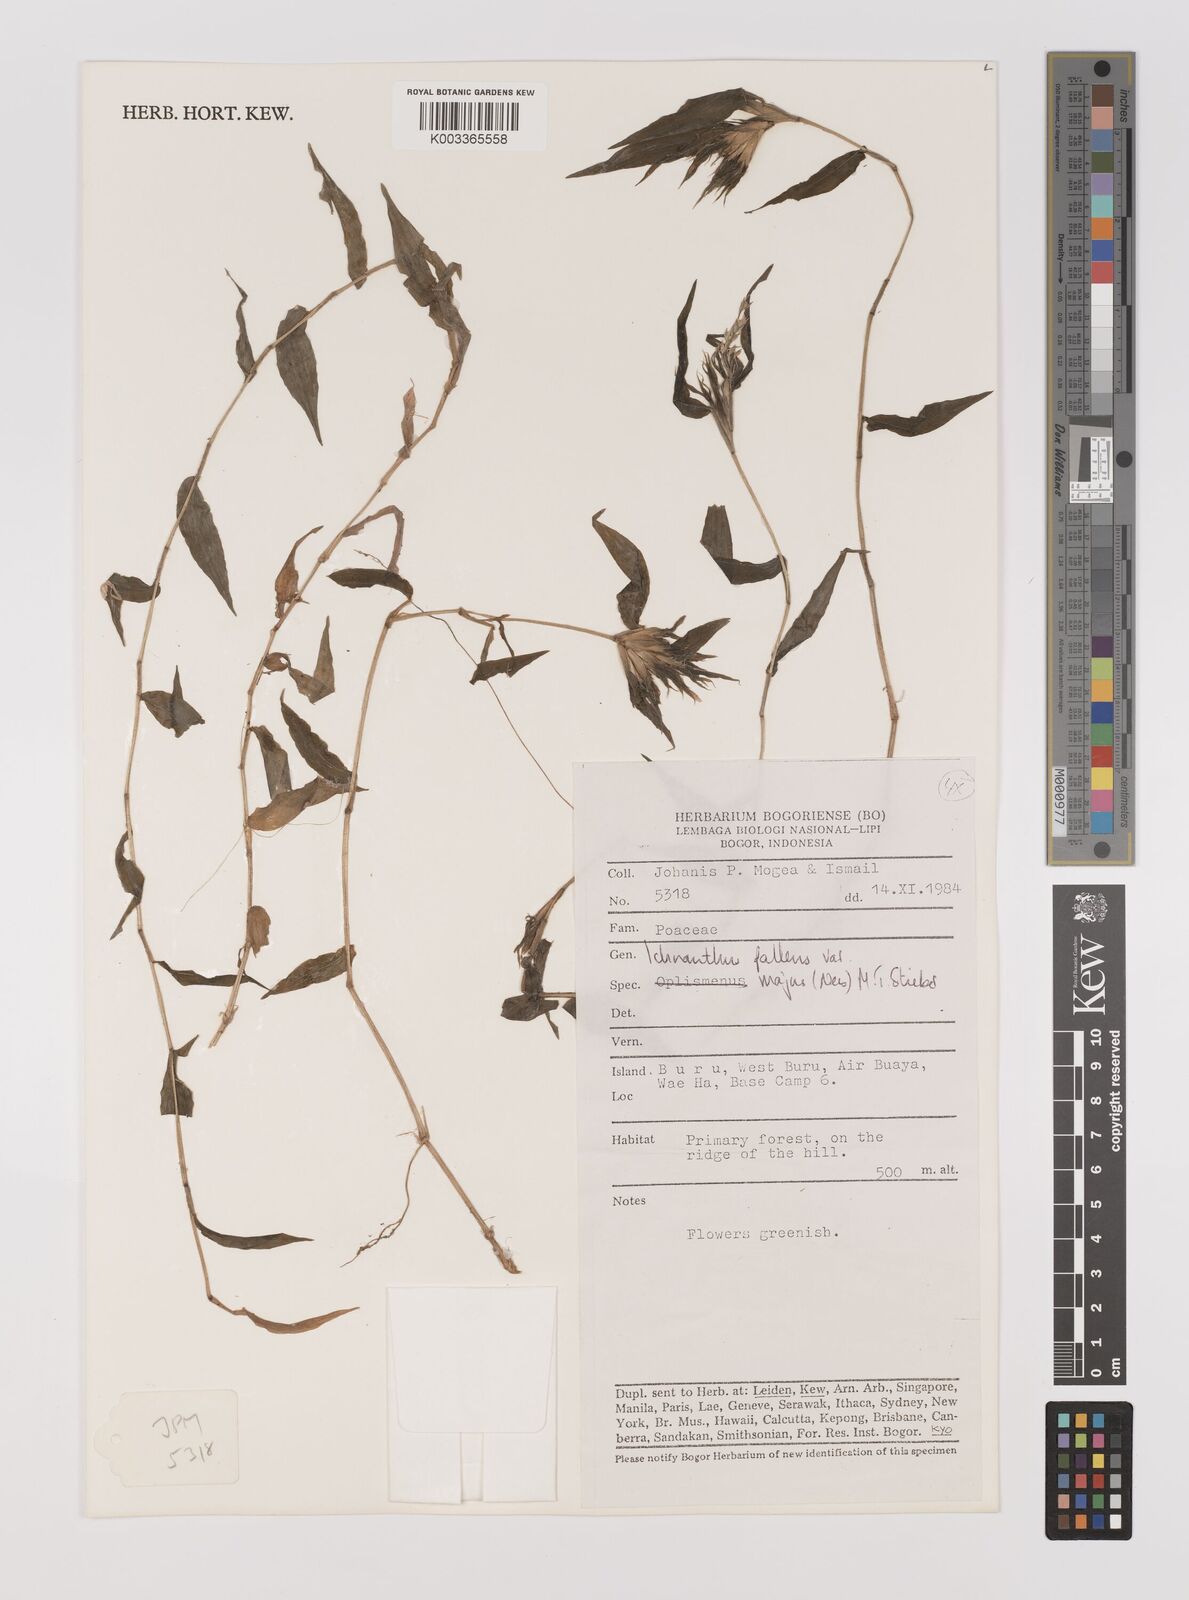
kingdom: Plantae
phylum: Tracheophyta
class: Liliopsida
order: Poales
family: Poaceae
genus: Ichnanthus
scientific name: Ichnanthus pallens
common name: Water grass
